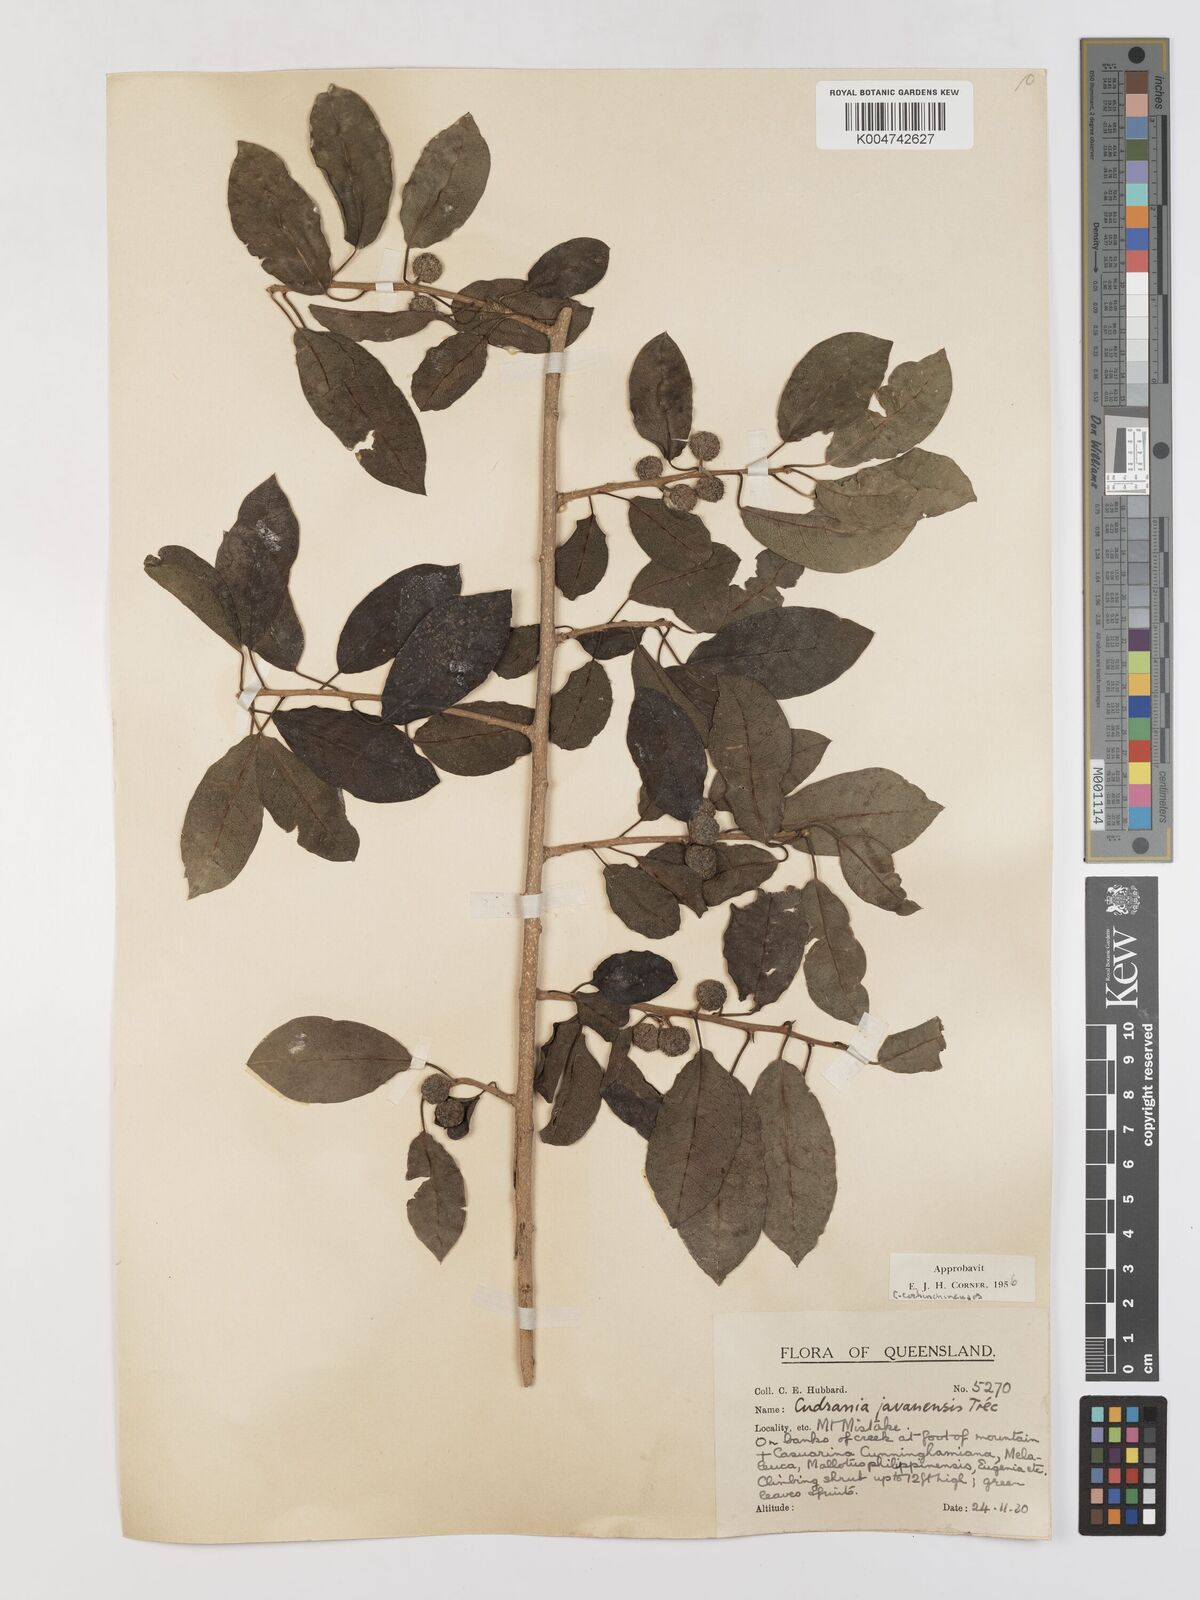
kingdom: Plantae
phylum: Tracheophyta
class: Magnoliopsida
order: Rosales
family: Moraceae
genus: Maclura
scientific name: Maclura cochinchinensis
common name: Cockspurthorn
